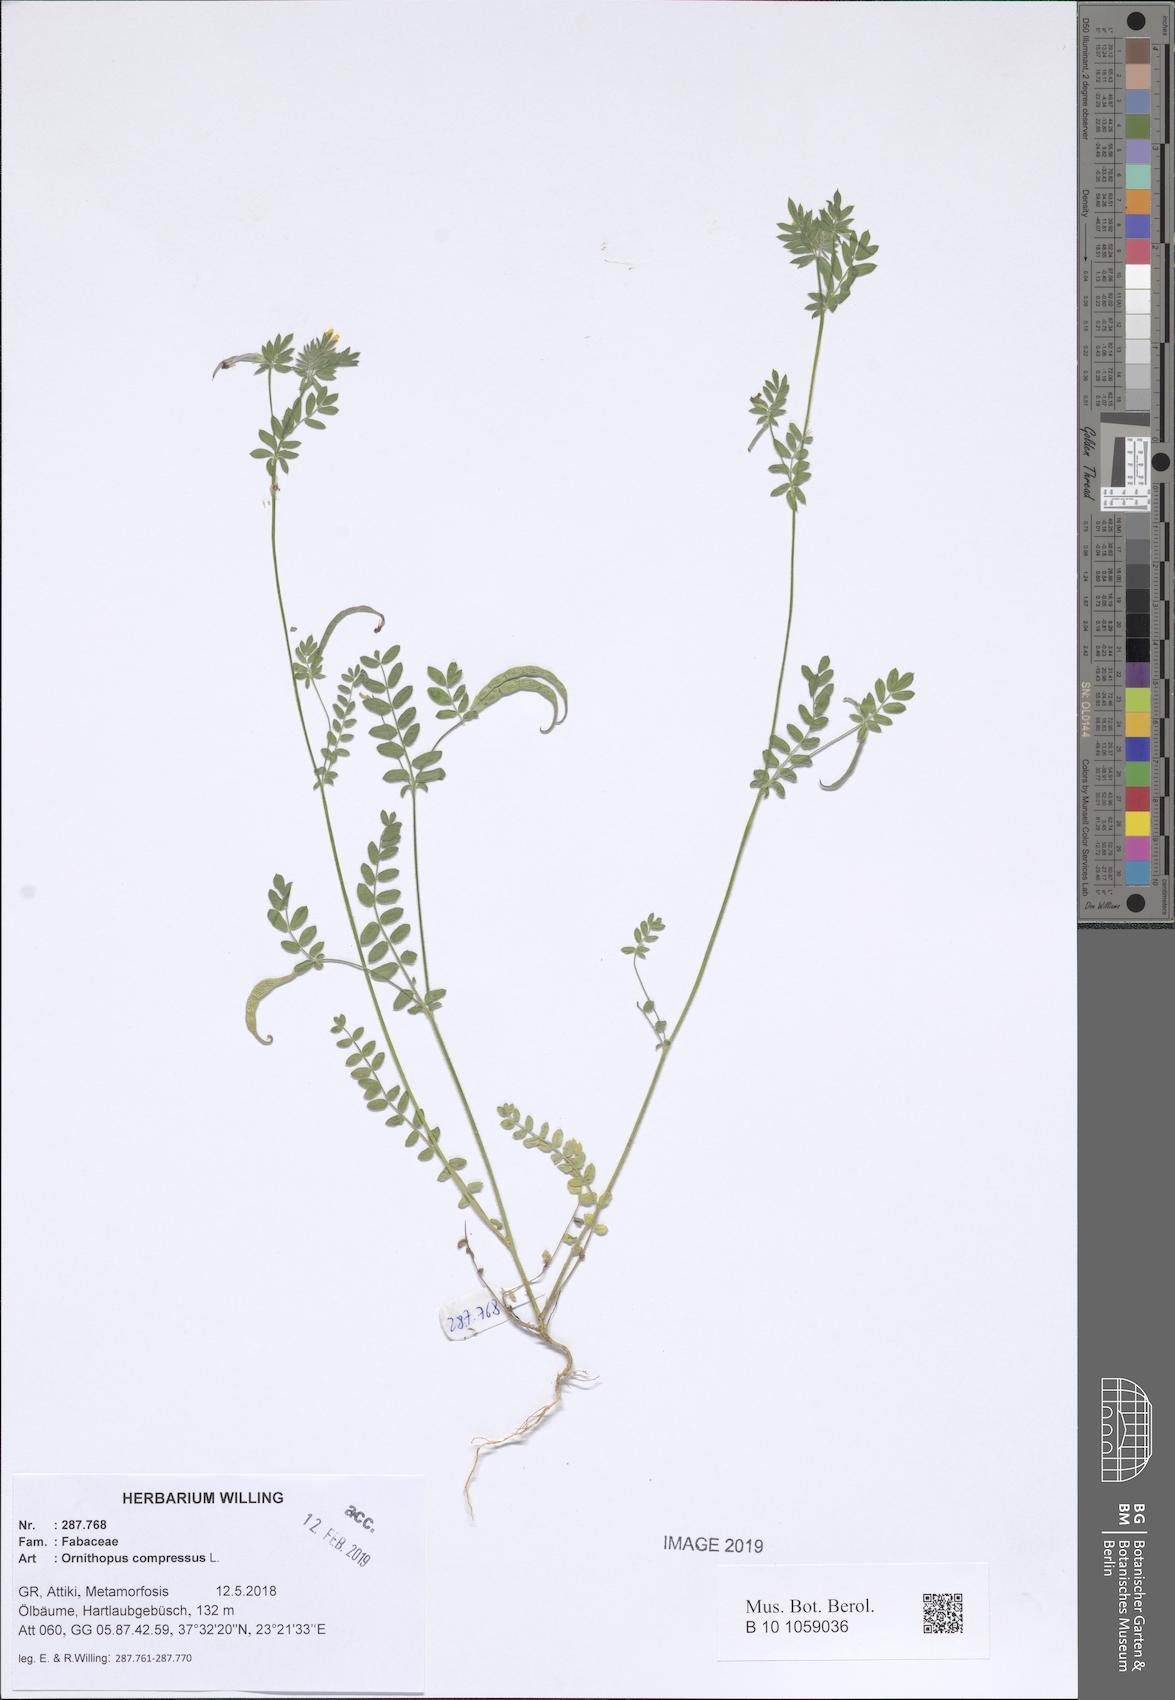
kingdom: Plantae
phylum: Tracheophyta
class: Magnoliopsida
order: Fabales
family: Fabaceae
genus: Ornithopus
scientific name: Ornithopus compressus
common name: Yellow serradella
